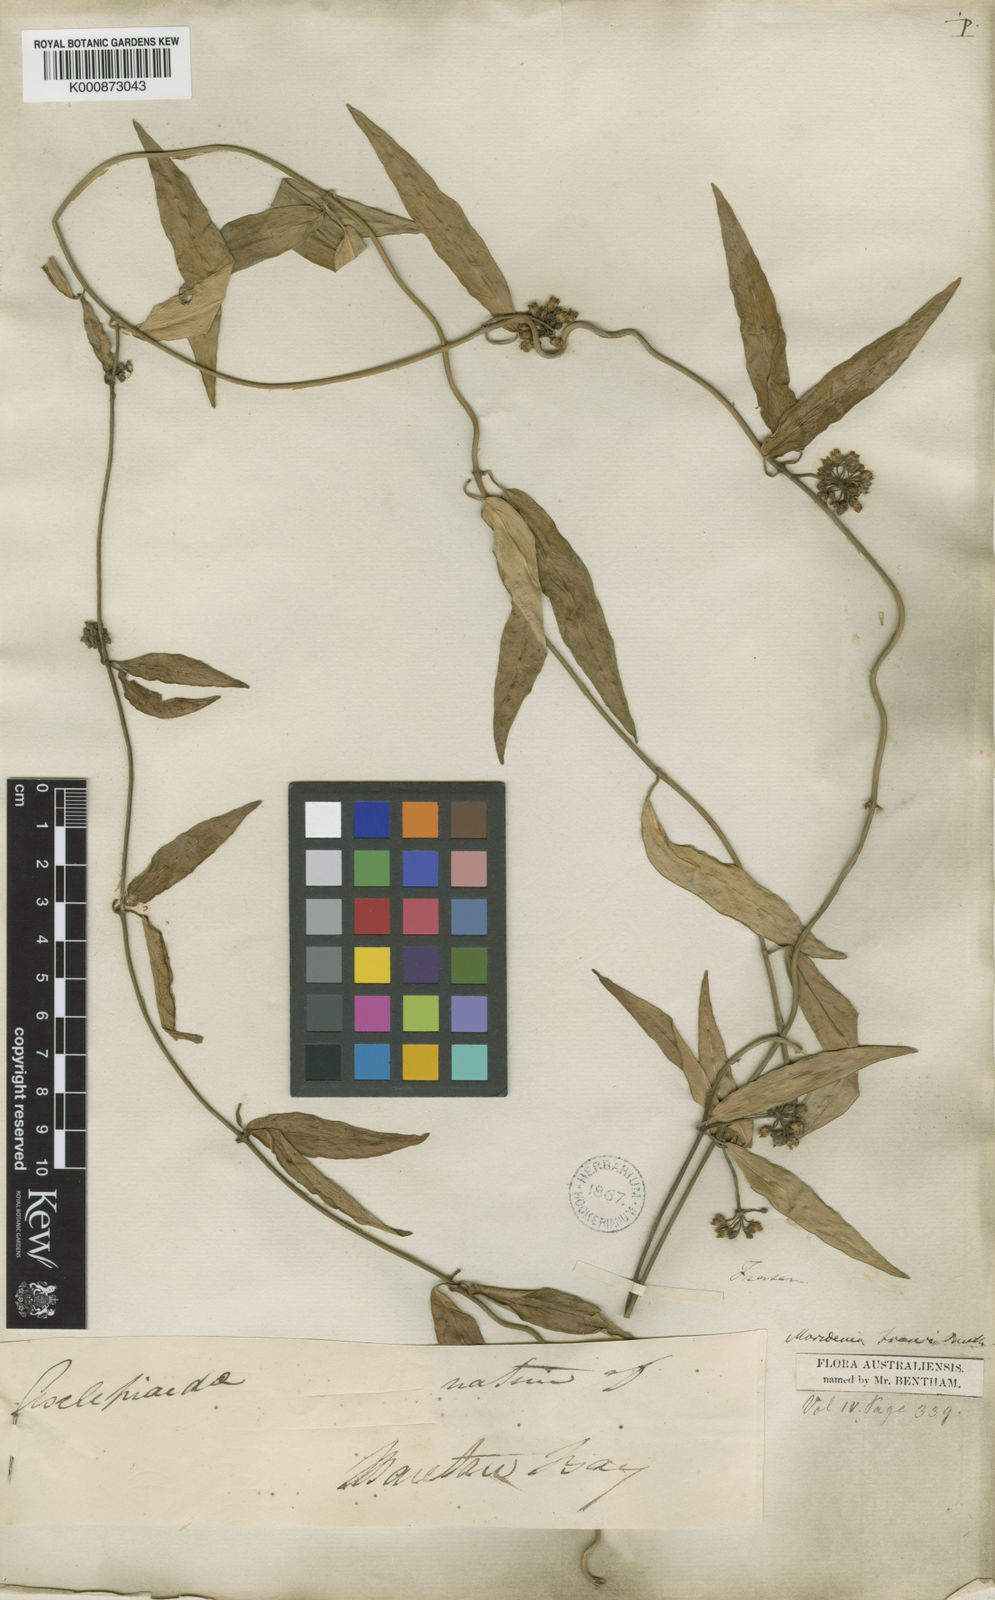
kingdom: Plantae
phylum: Tracheophyta
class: Magnoliopsida
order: Gentianales
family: Apocynaceae
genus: Leichhardtia
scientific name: Leichhardtia fraseri
